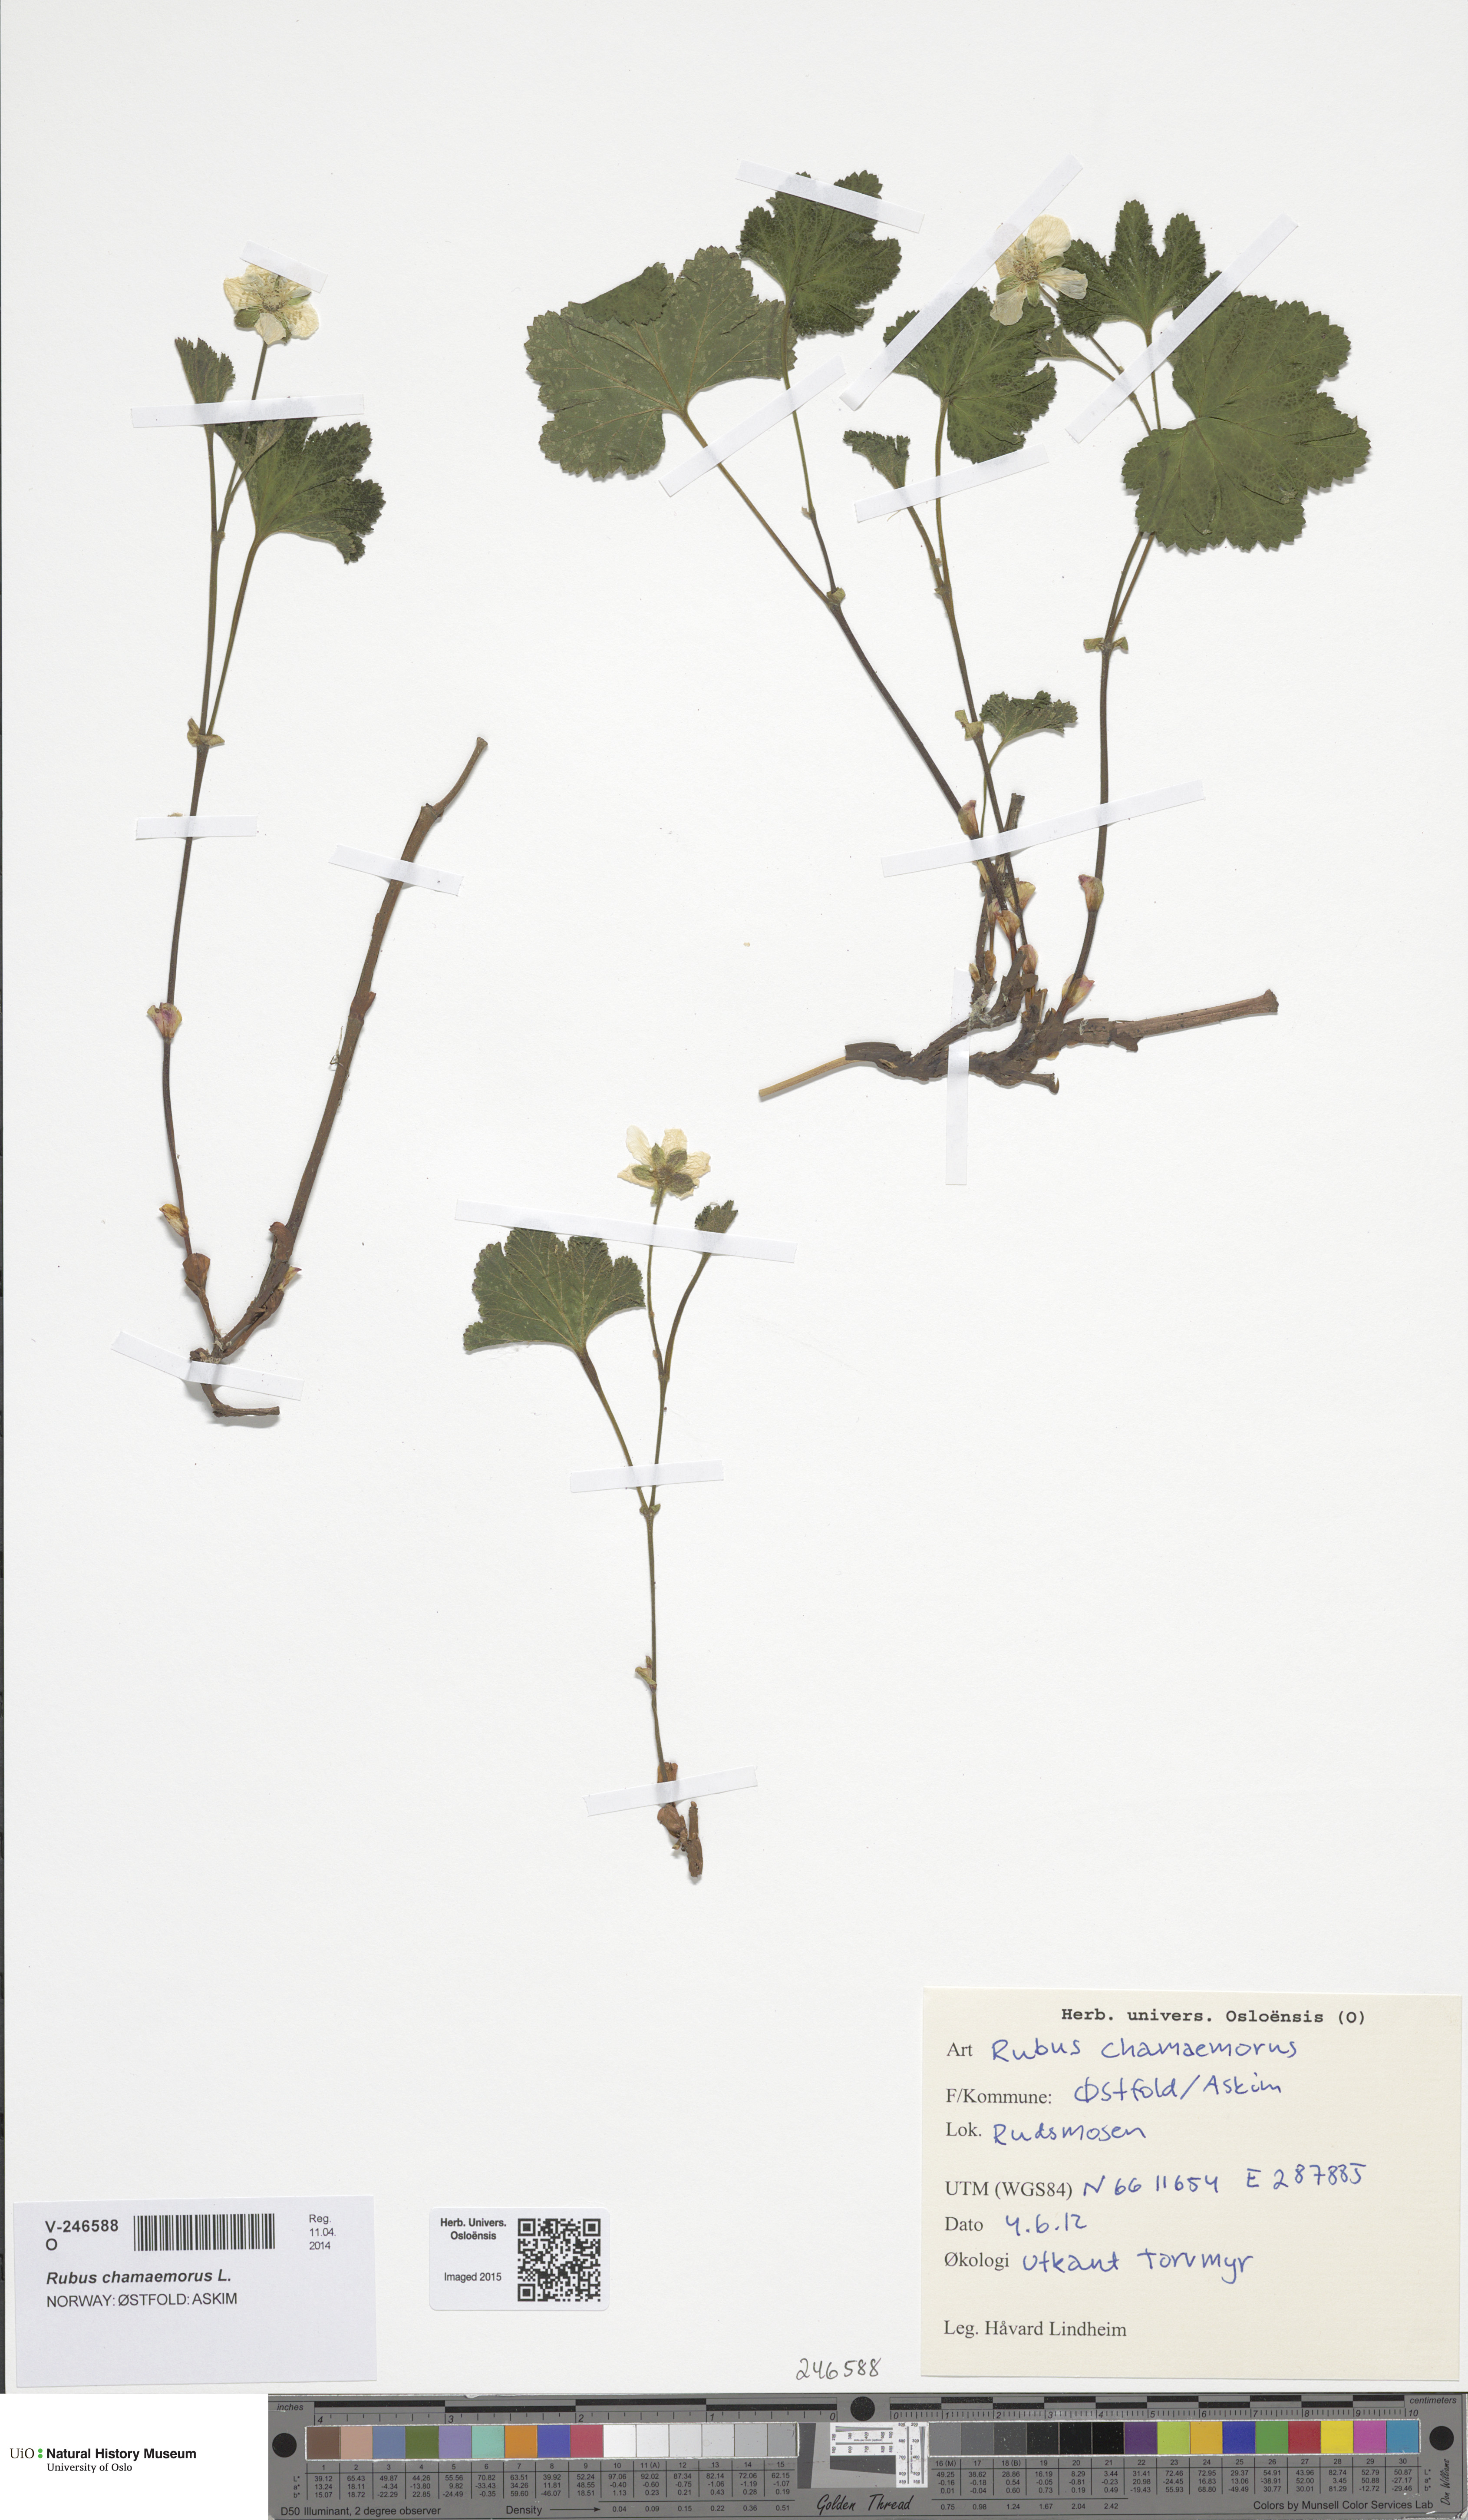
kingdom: Plantae
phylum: Tracheophyta
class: Magnoliopsida
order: Rosales
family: Rosaceae
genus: Rubus
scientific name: Rubus chamaemorus
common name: Cloudberry
